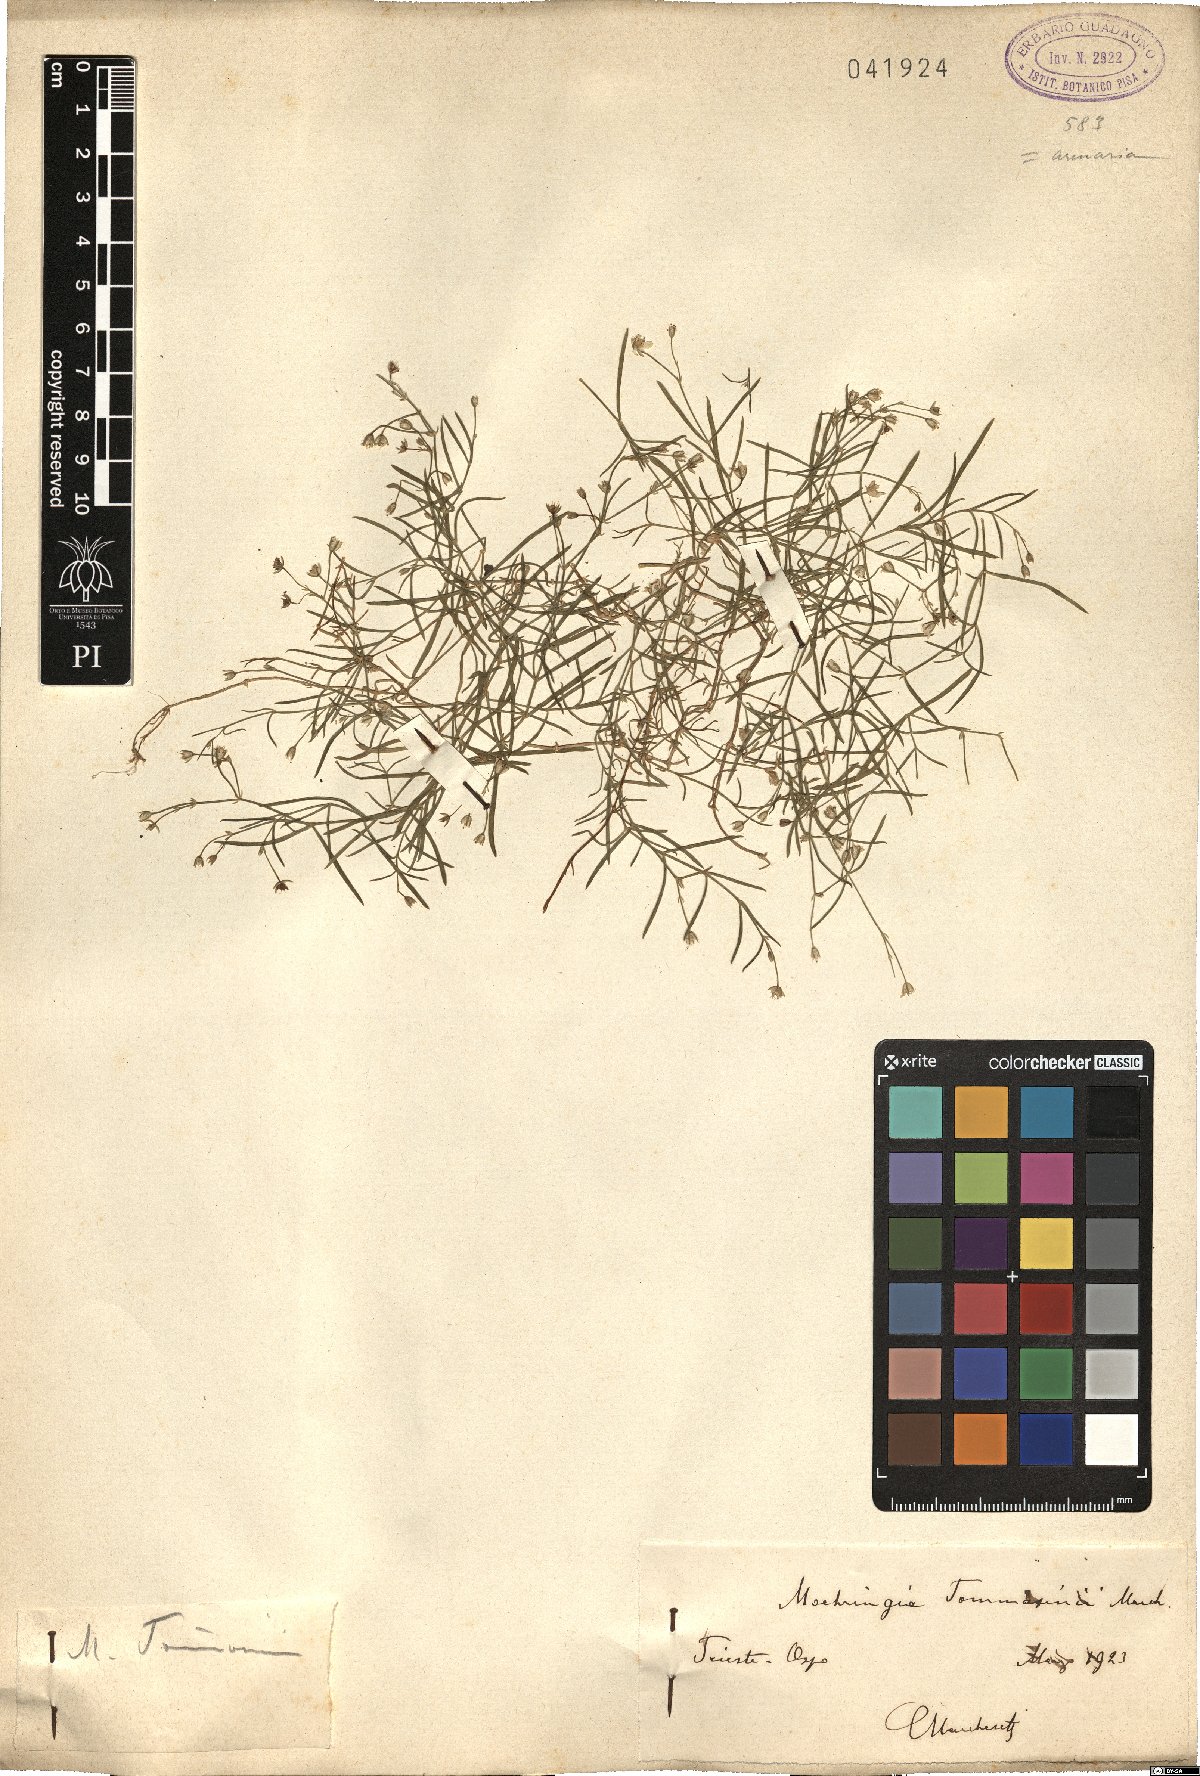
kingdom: Plantae
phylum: Tracheophyta
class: Magnoliopsida
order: Caryophyllales
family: Caryophyllaceae
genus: Moehringia
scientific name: Moehringia tommasinii
